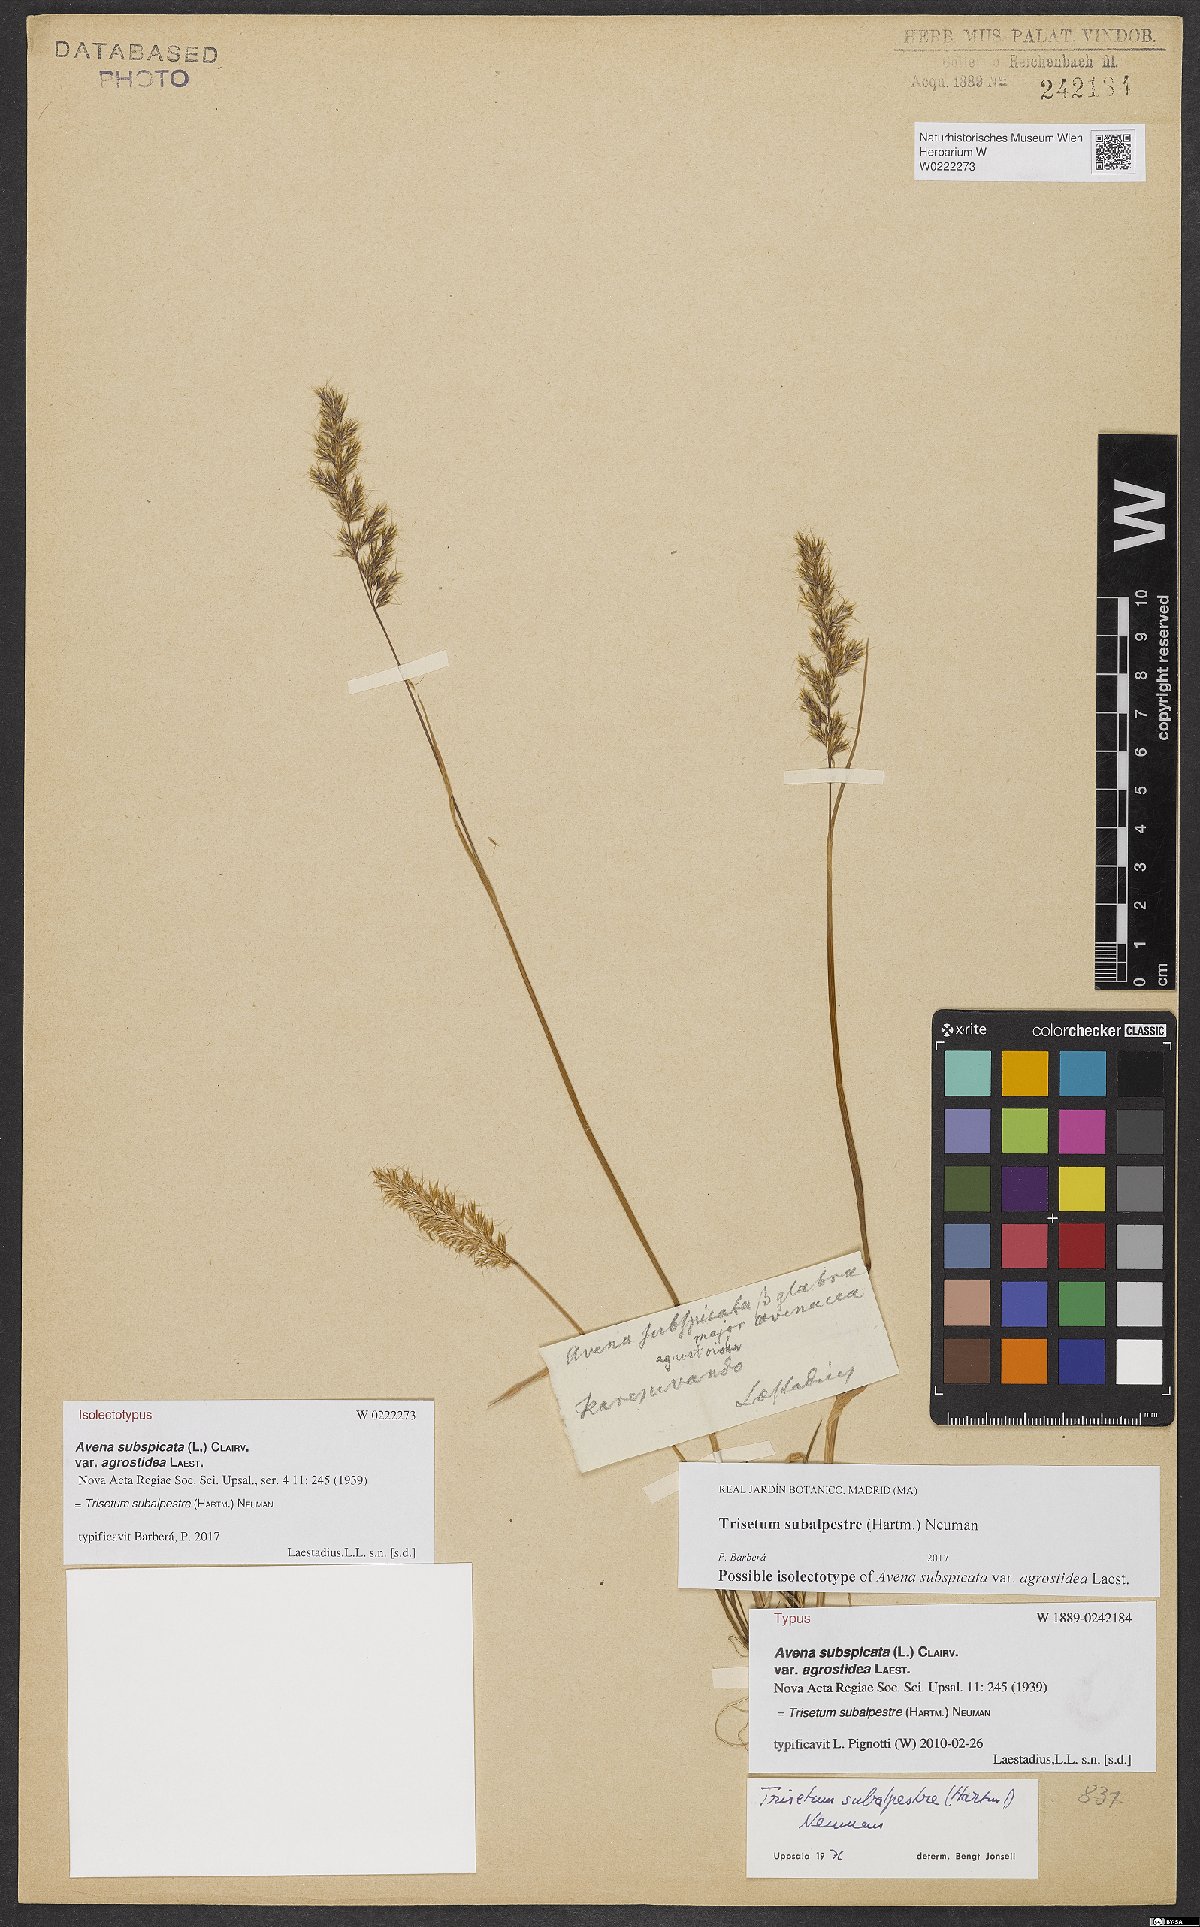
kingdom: Plantae
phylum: Tracheophyta
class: Liliopsida
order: Poales
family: Poaceae
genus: Koeleria
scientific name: Koeleria subalpestris
